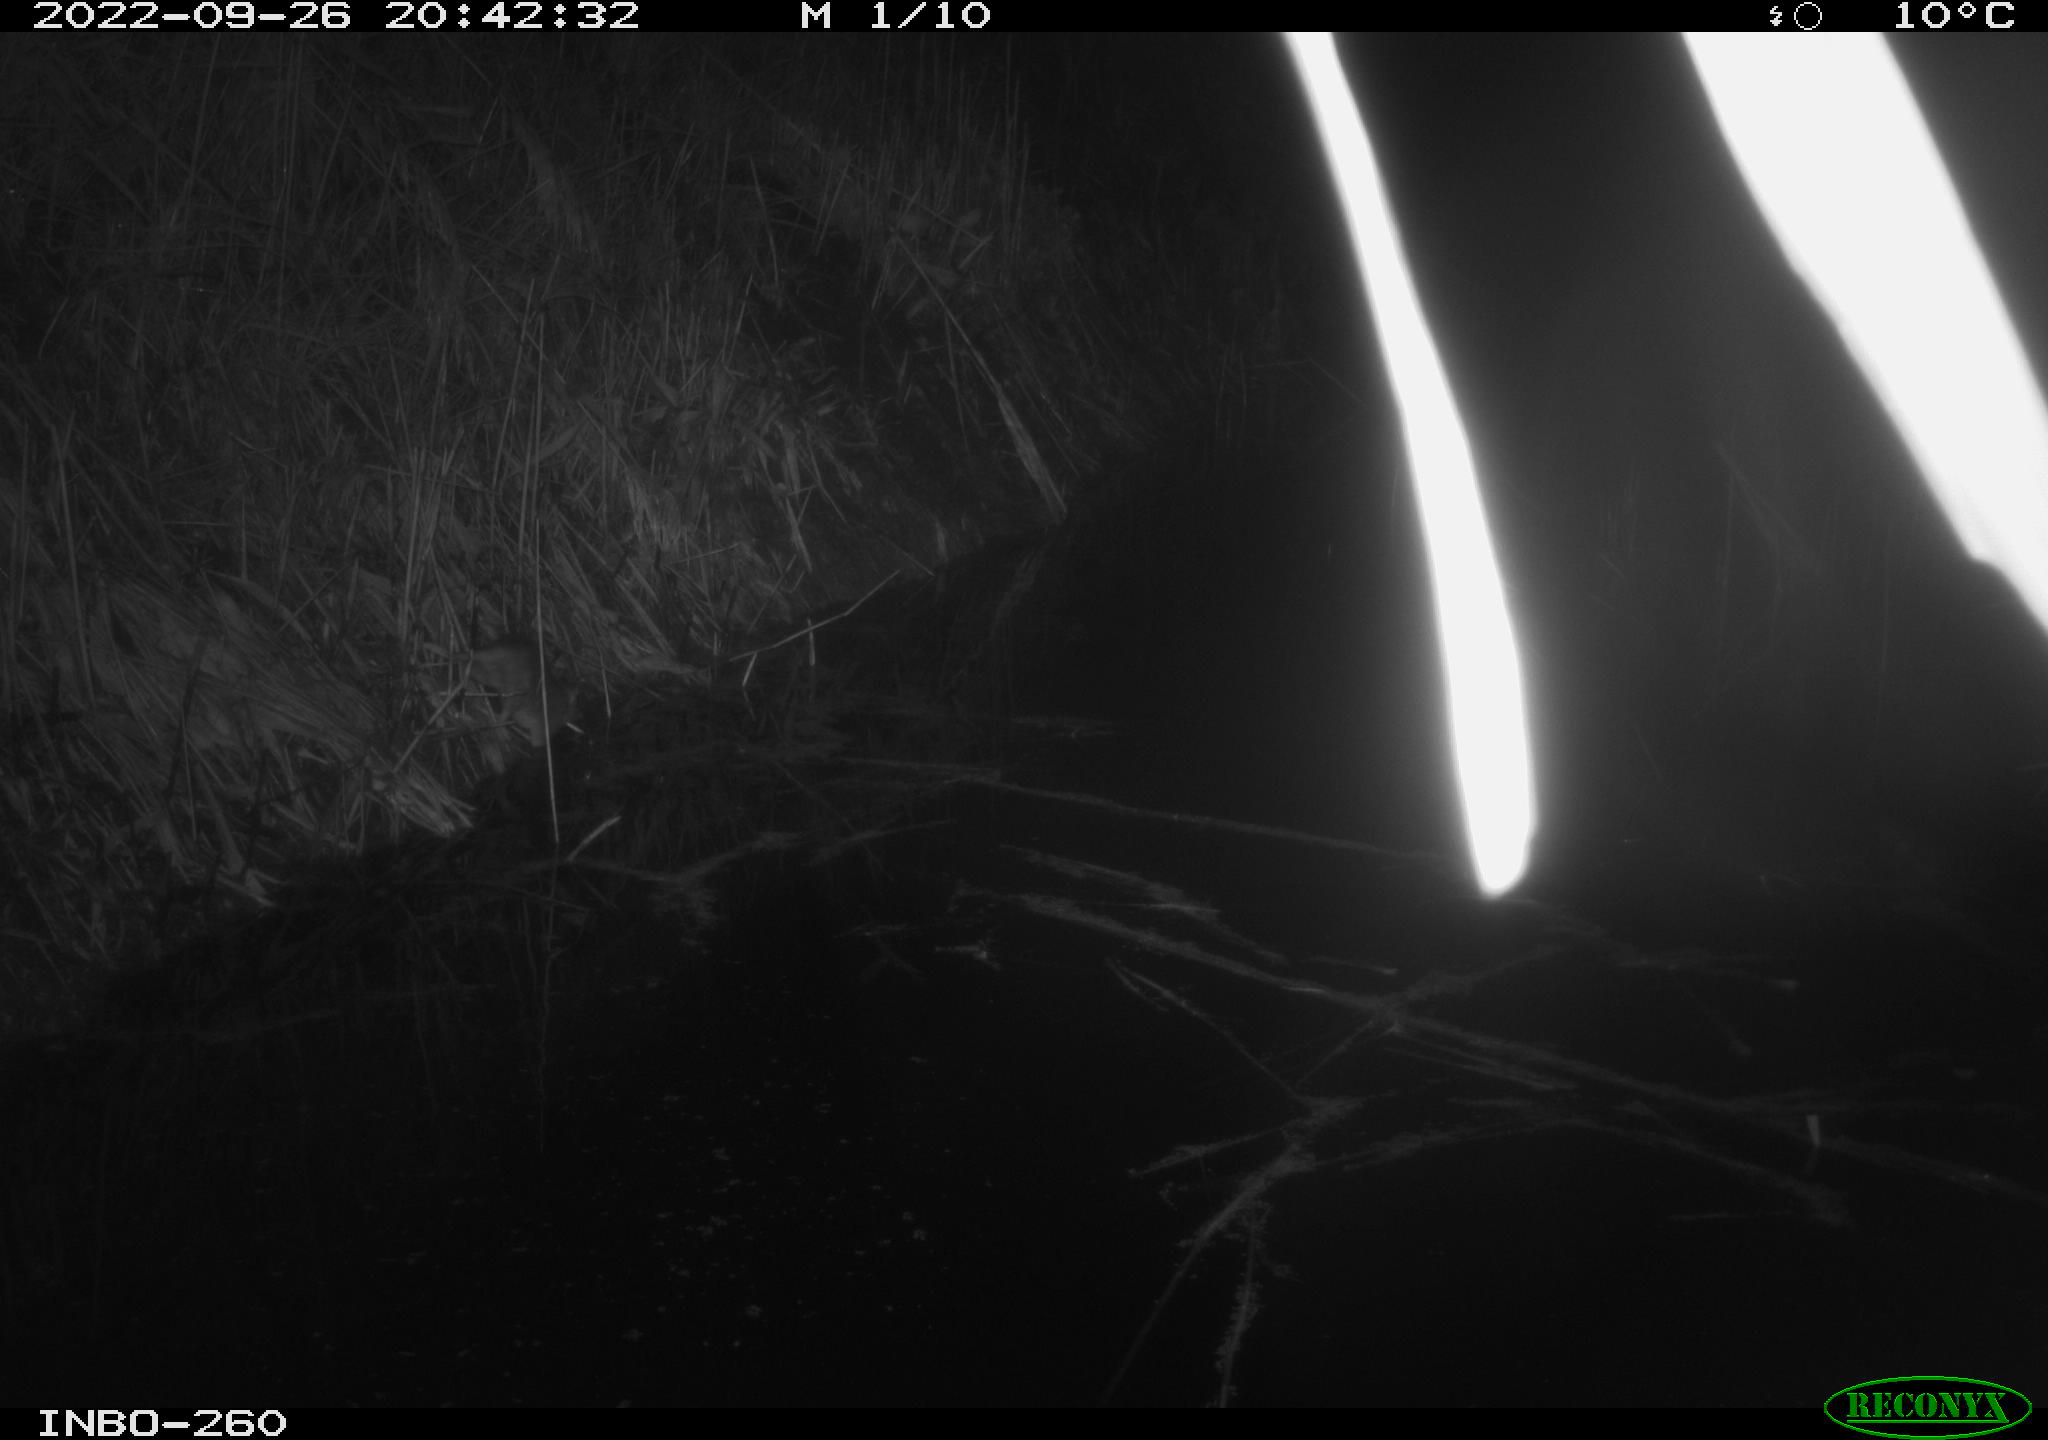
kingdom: Animalia
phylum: Chordata
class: Mammalia
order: Rodentia
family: Muridae
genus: Rattus
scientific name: Rattus norvegicus
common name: Brown rat
